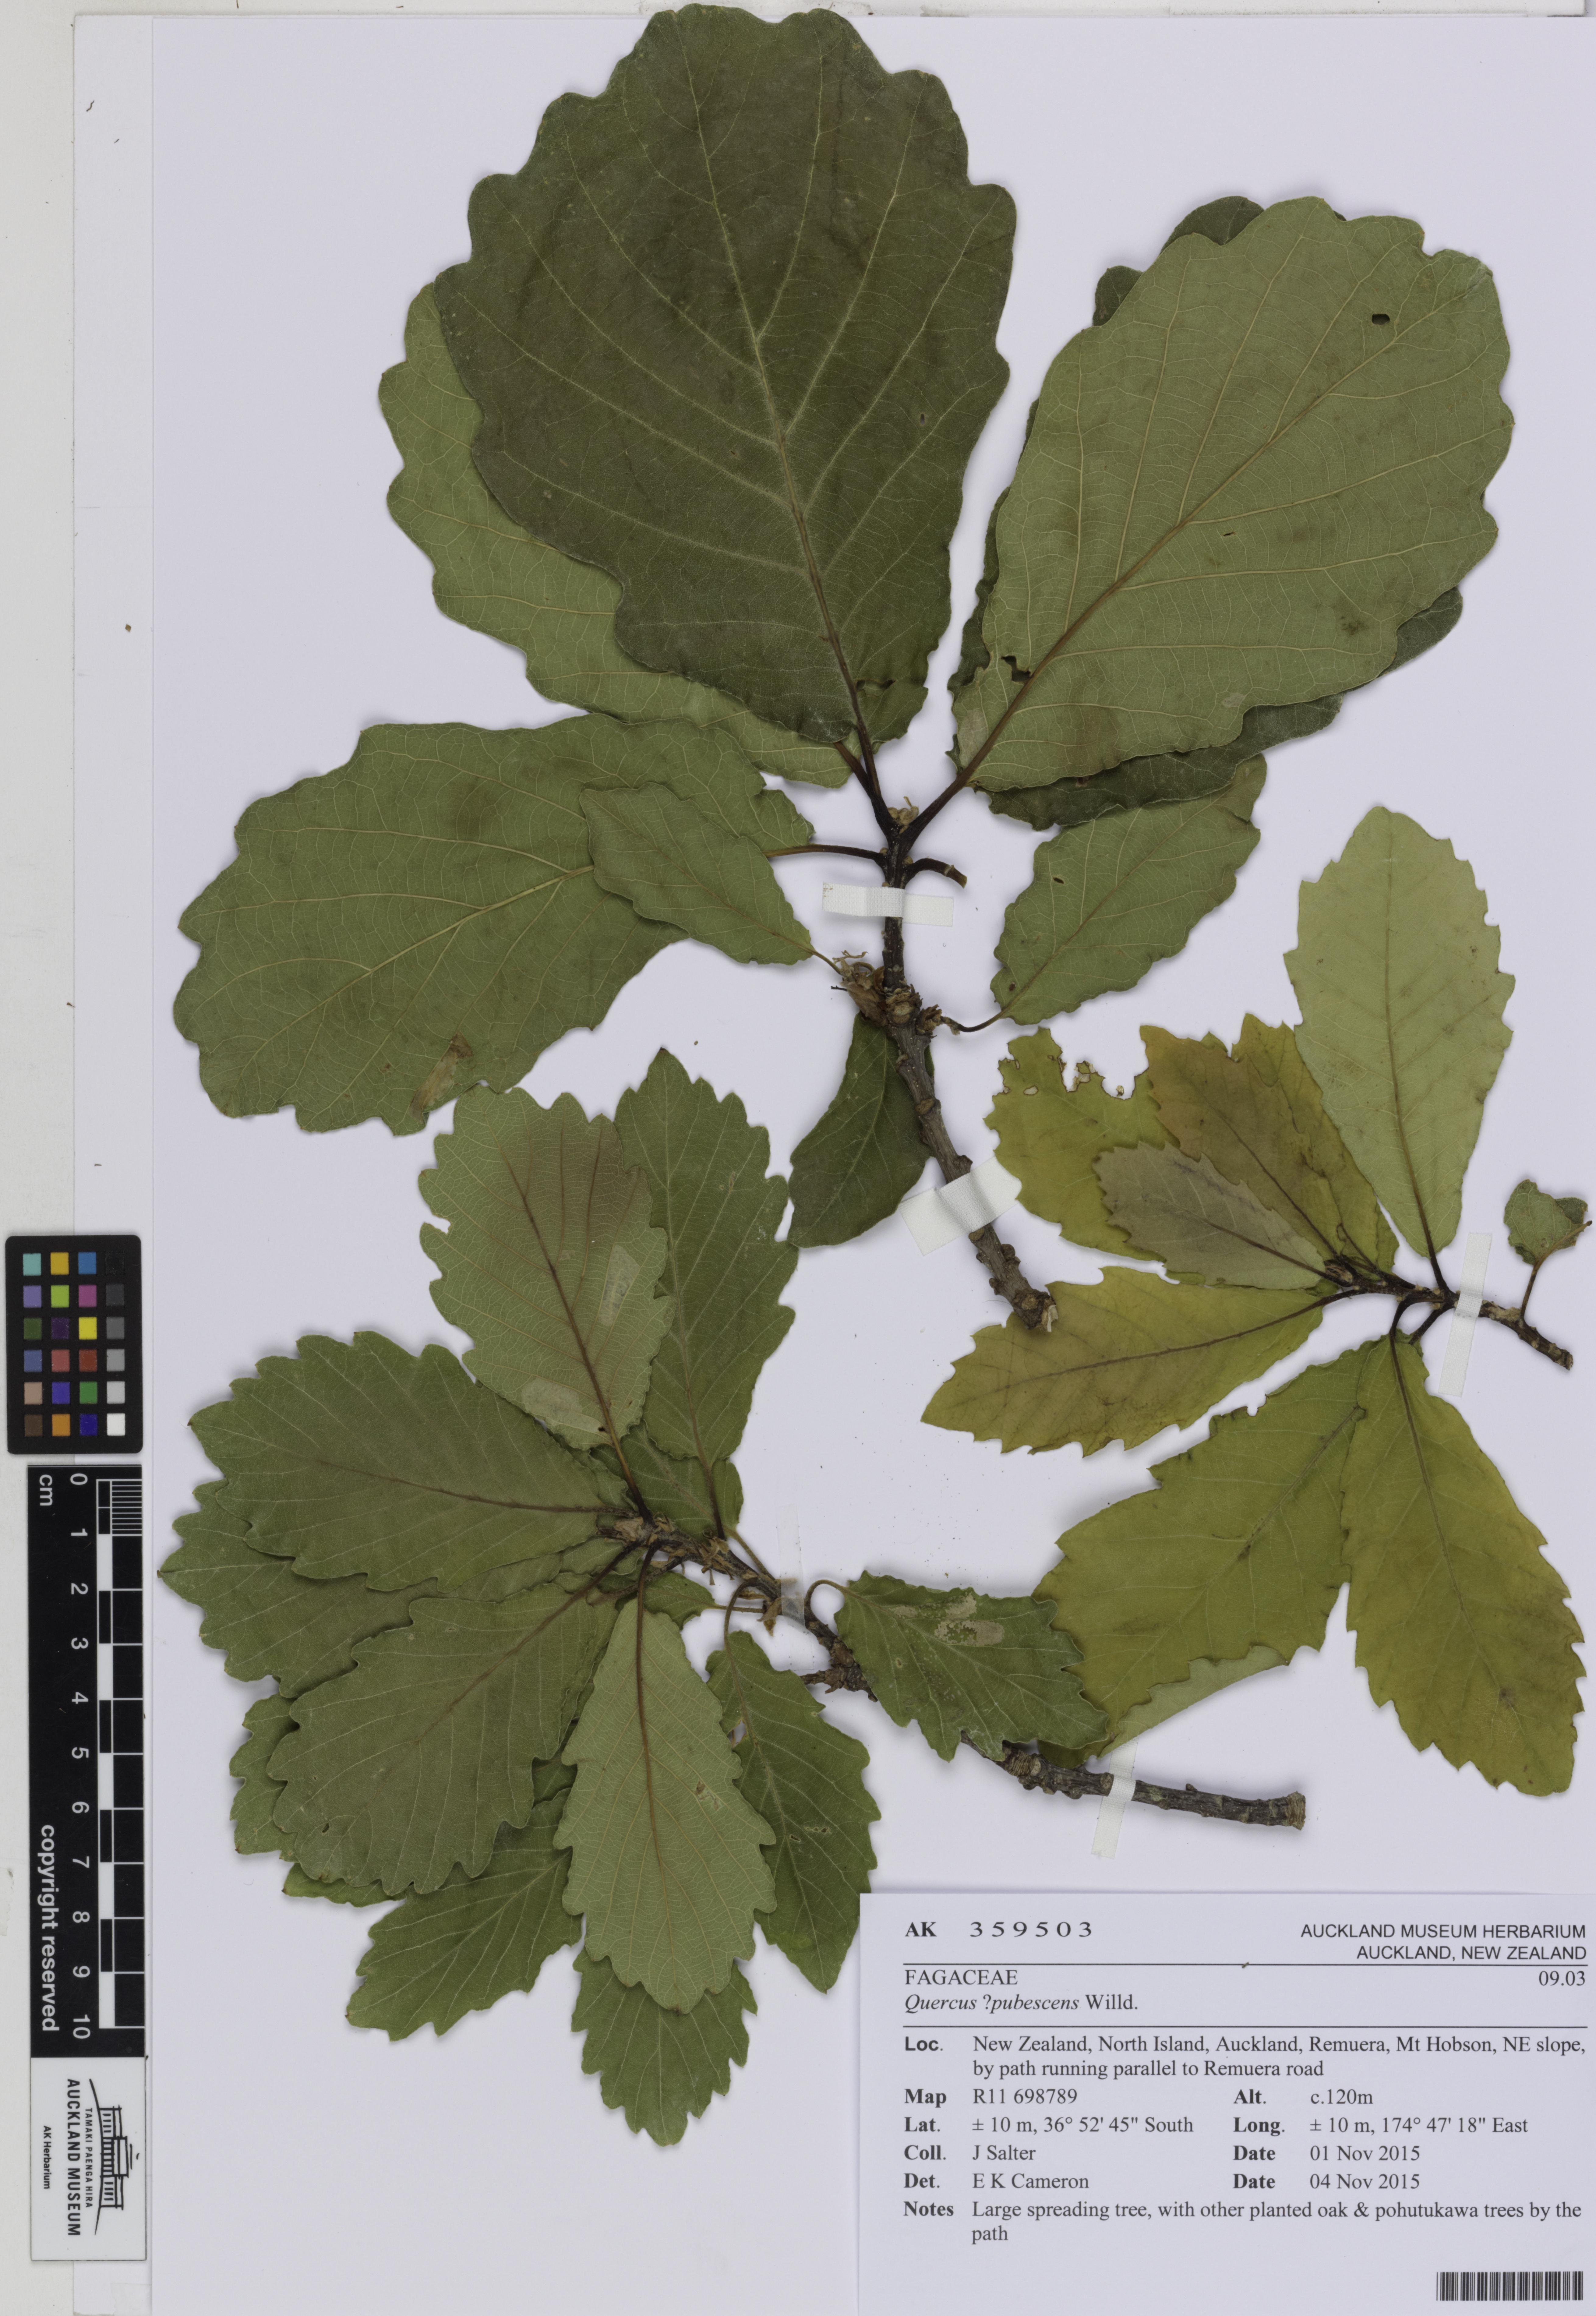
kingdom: Plantae
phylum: Tracheophyta
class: Magnoliopsida
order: Fagales
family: Fagaceae
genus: Quercus
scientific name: Quercus pubescens
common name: Downy oak
